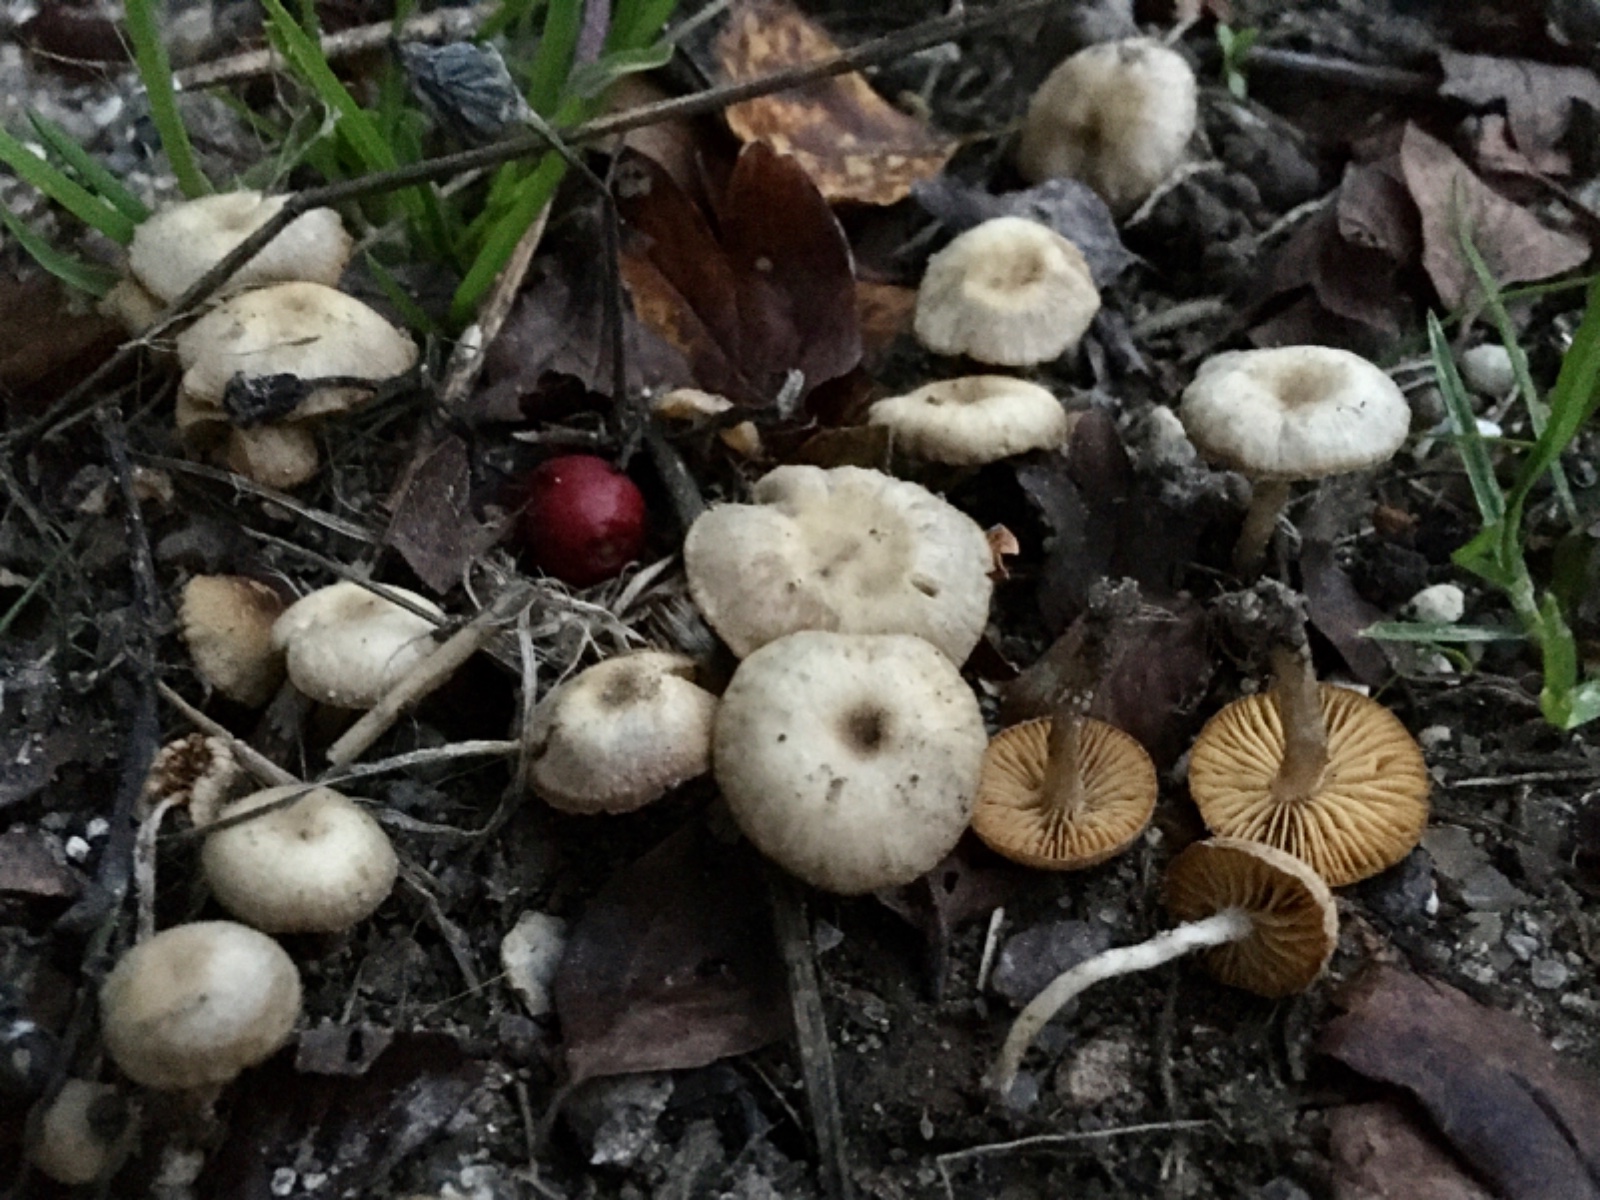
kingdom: Fungi
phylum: Basidiomycota
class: Agaricomycetes
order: Agaricales
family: Tubariaceae
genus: Tubaria
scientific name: Tubaria dispersa
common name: tjørne-fnughat
